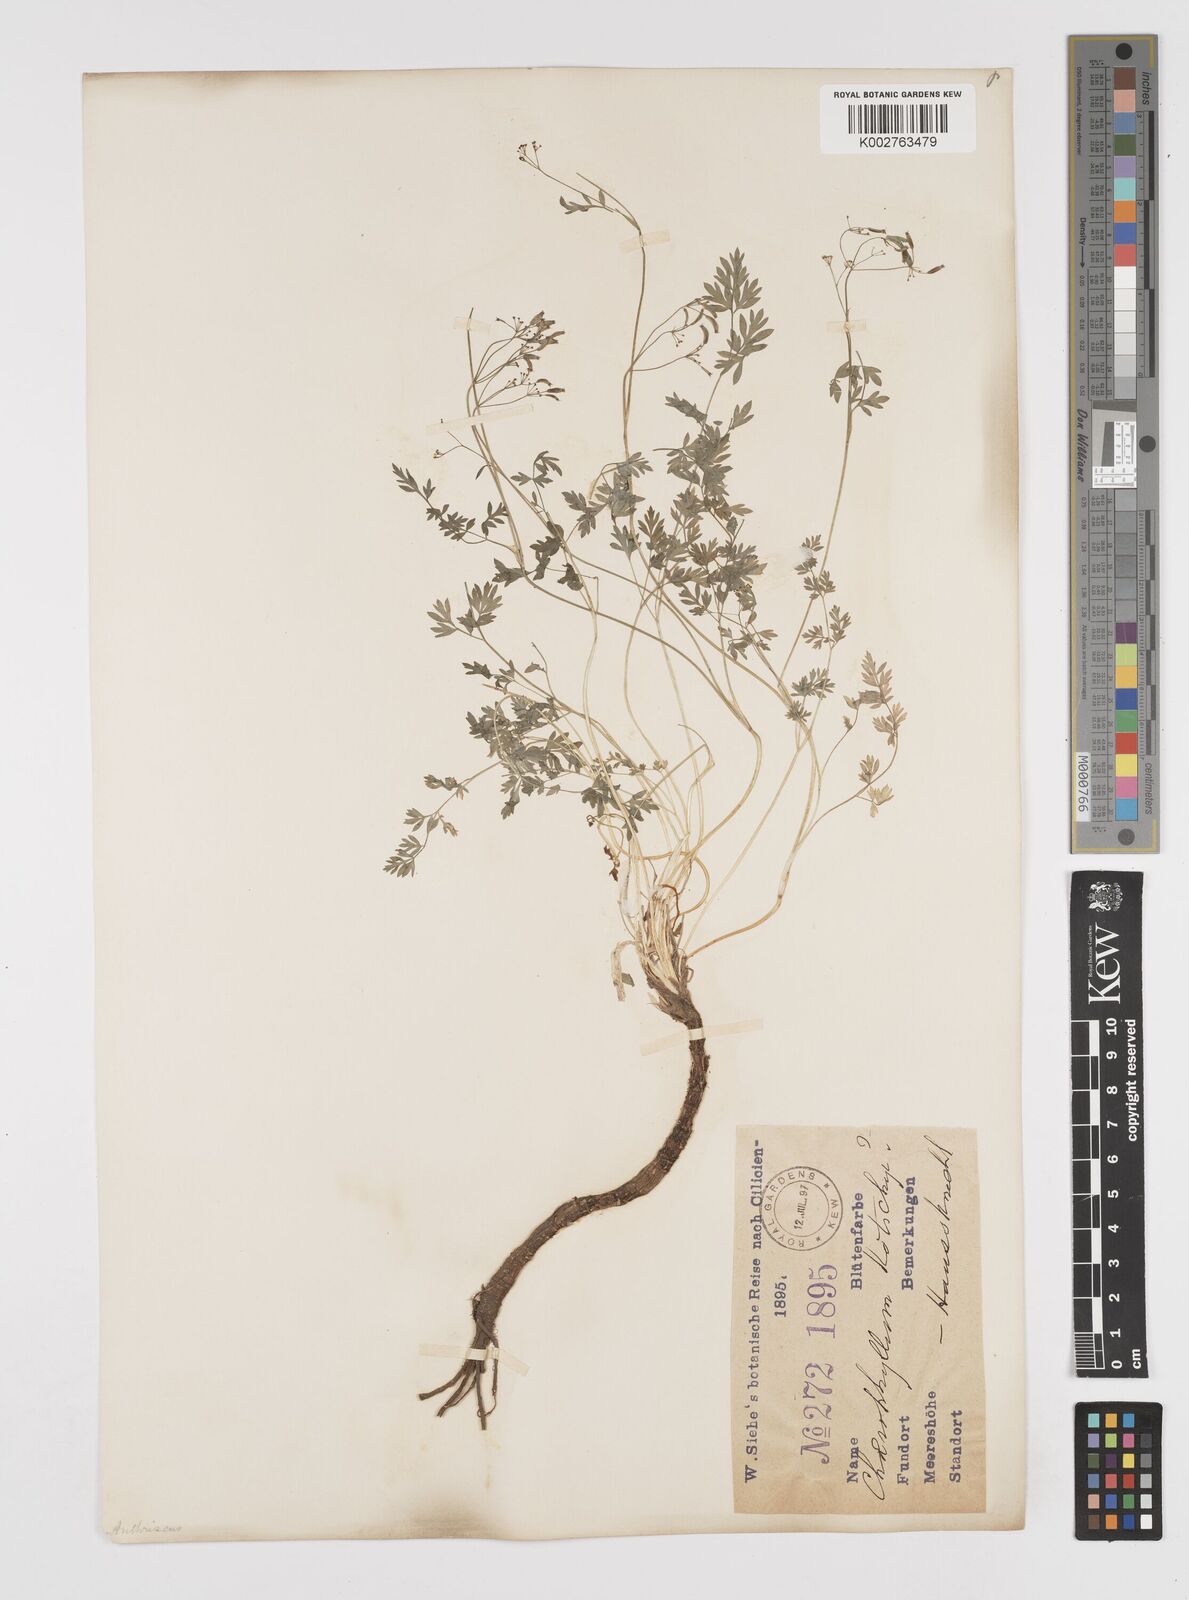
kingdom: Plantae
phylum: Tracheophyta
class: Magnoliopsida
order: Apiales
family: Apiaceae
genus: Anthriscus
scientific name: Anthriscus kotschyi
